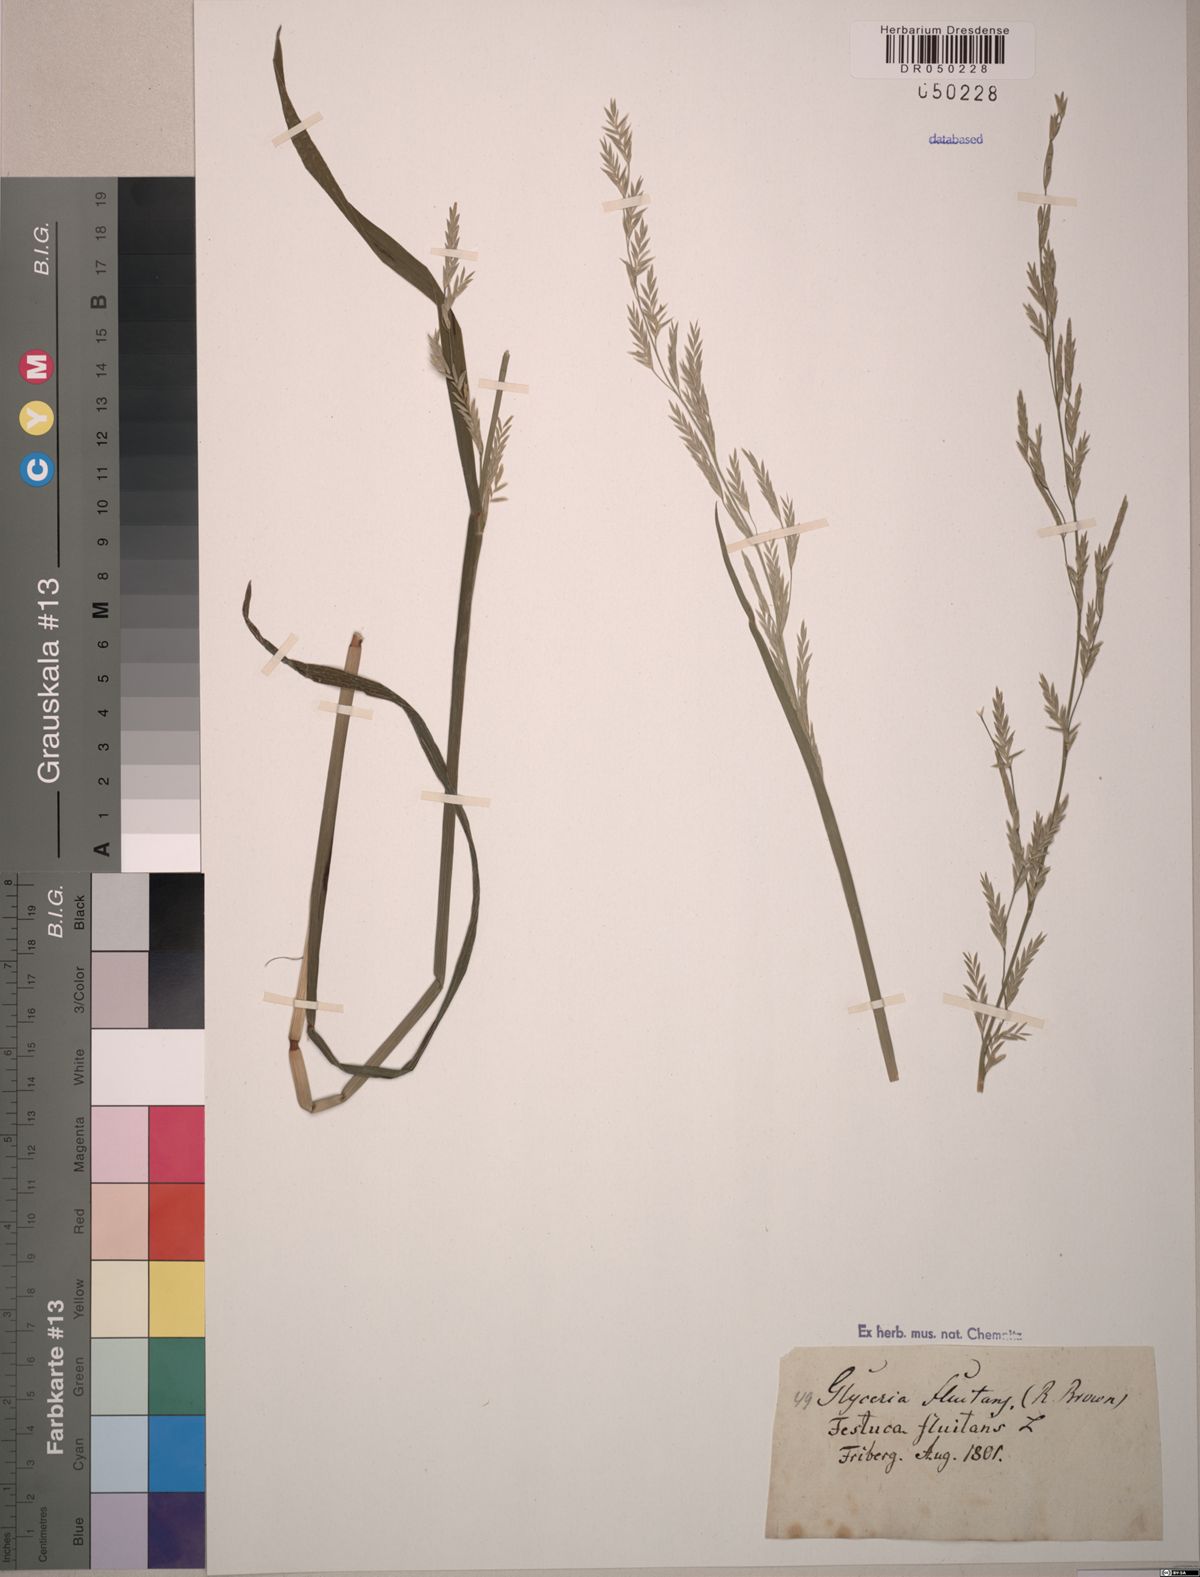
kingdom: Plantae
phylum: Tracheophyta
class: Liliopsida
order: Poales
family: Poaceae
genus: Glyceria
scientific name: Glyceria fluitans
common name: Floating sweet-grass
